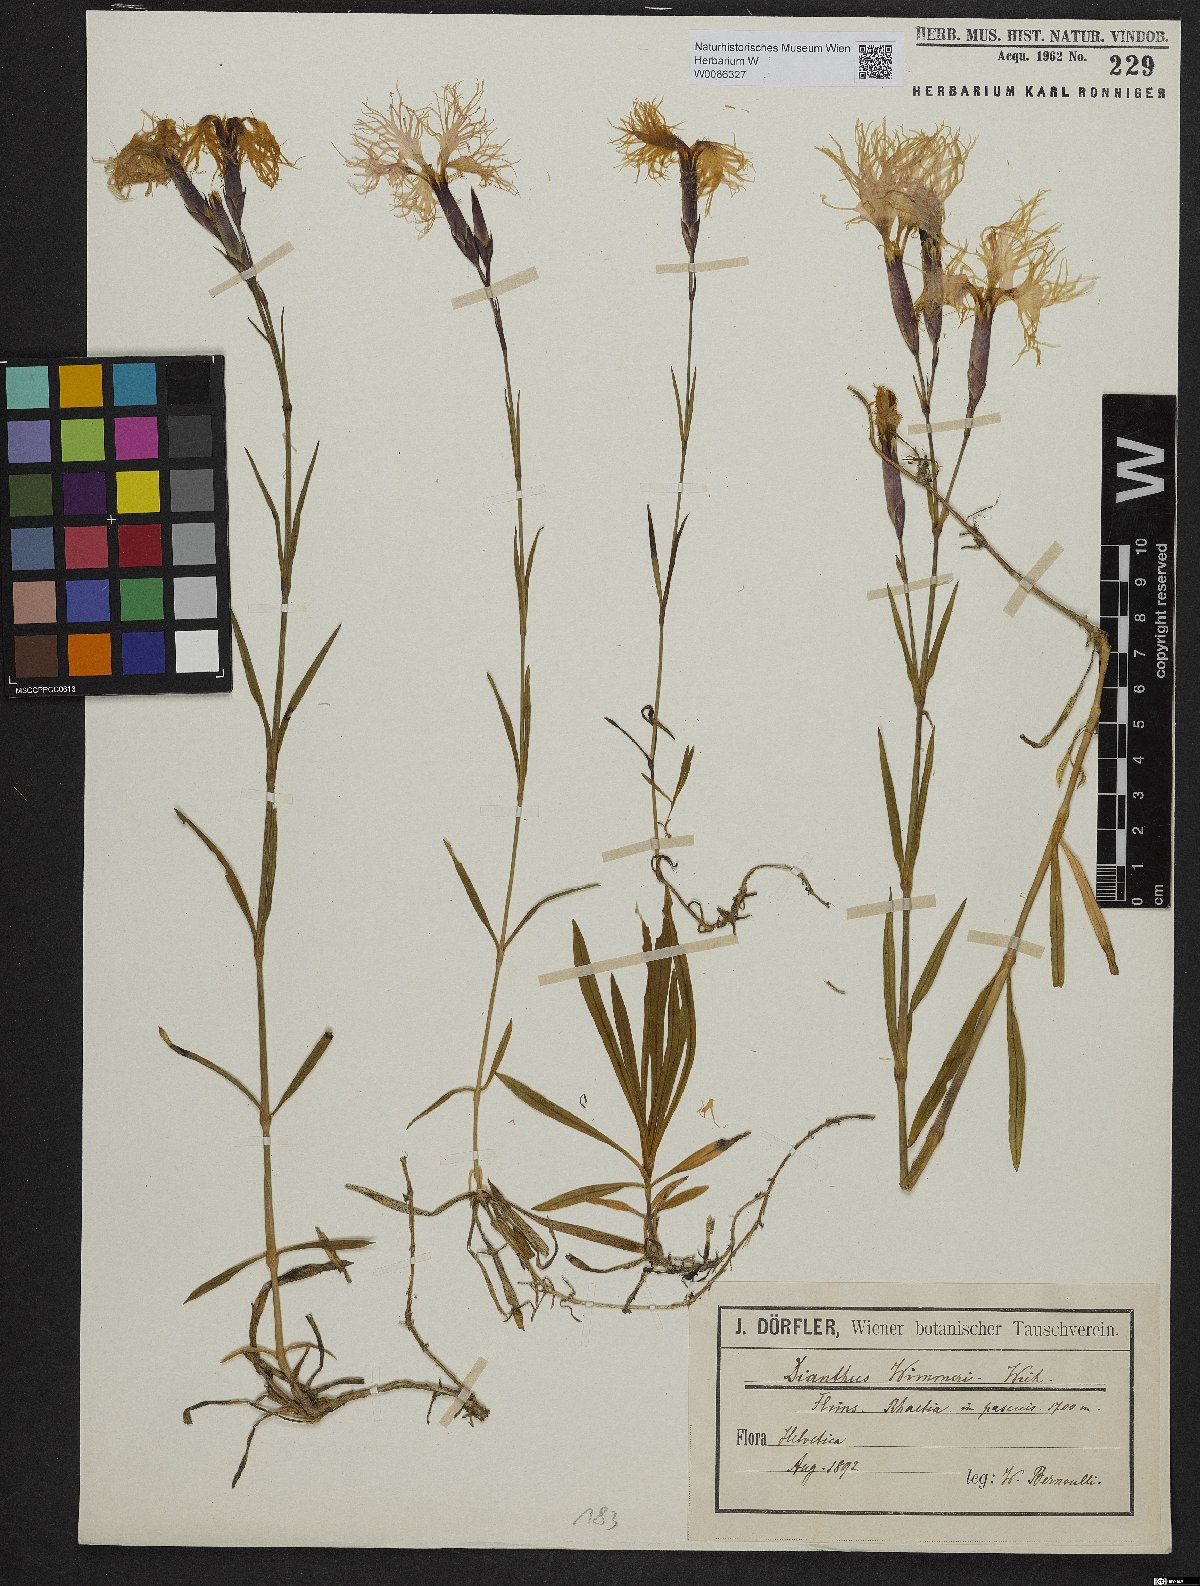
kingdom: Plantae
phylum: Tracheophyta
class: Magnoliopsida
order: Caryophyllales
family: Caryophyllaceae
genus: Dianthus
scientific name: Dianthus superbus
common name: Fringed pink
